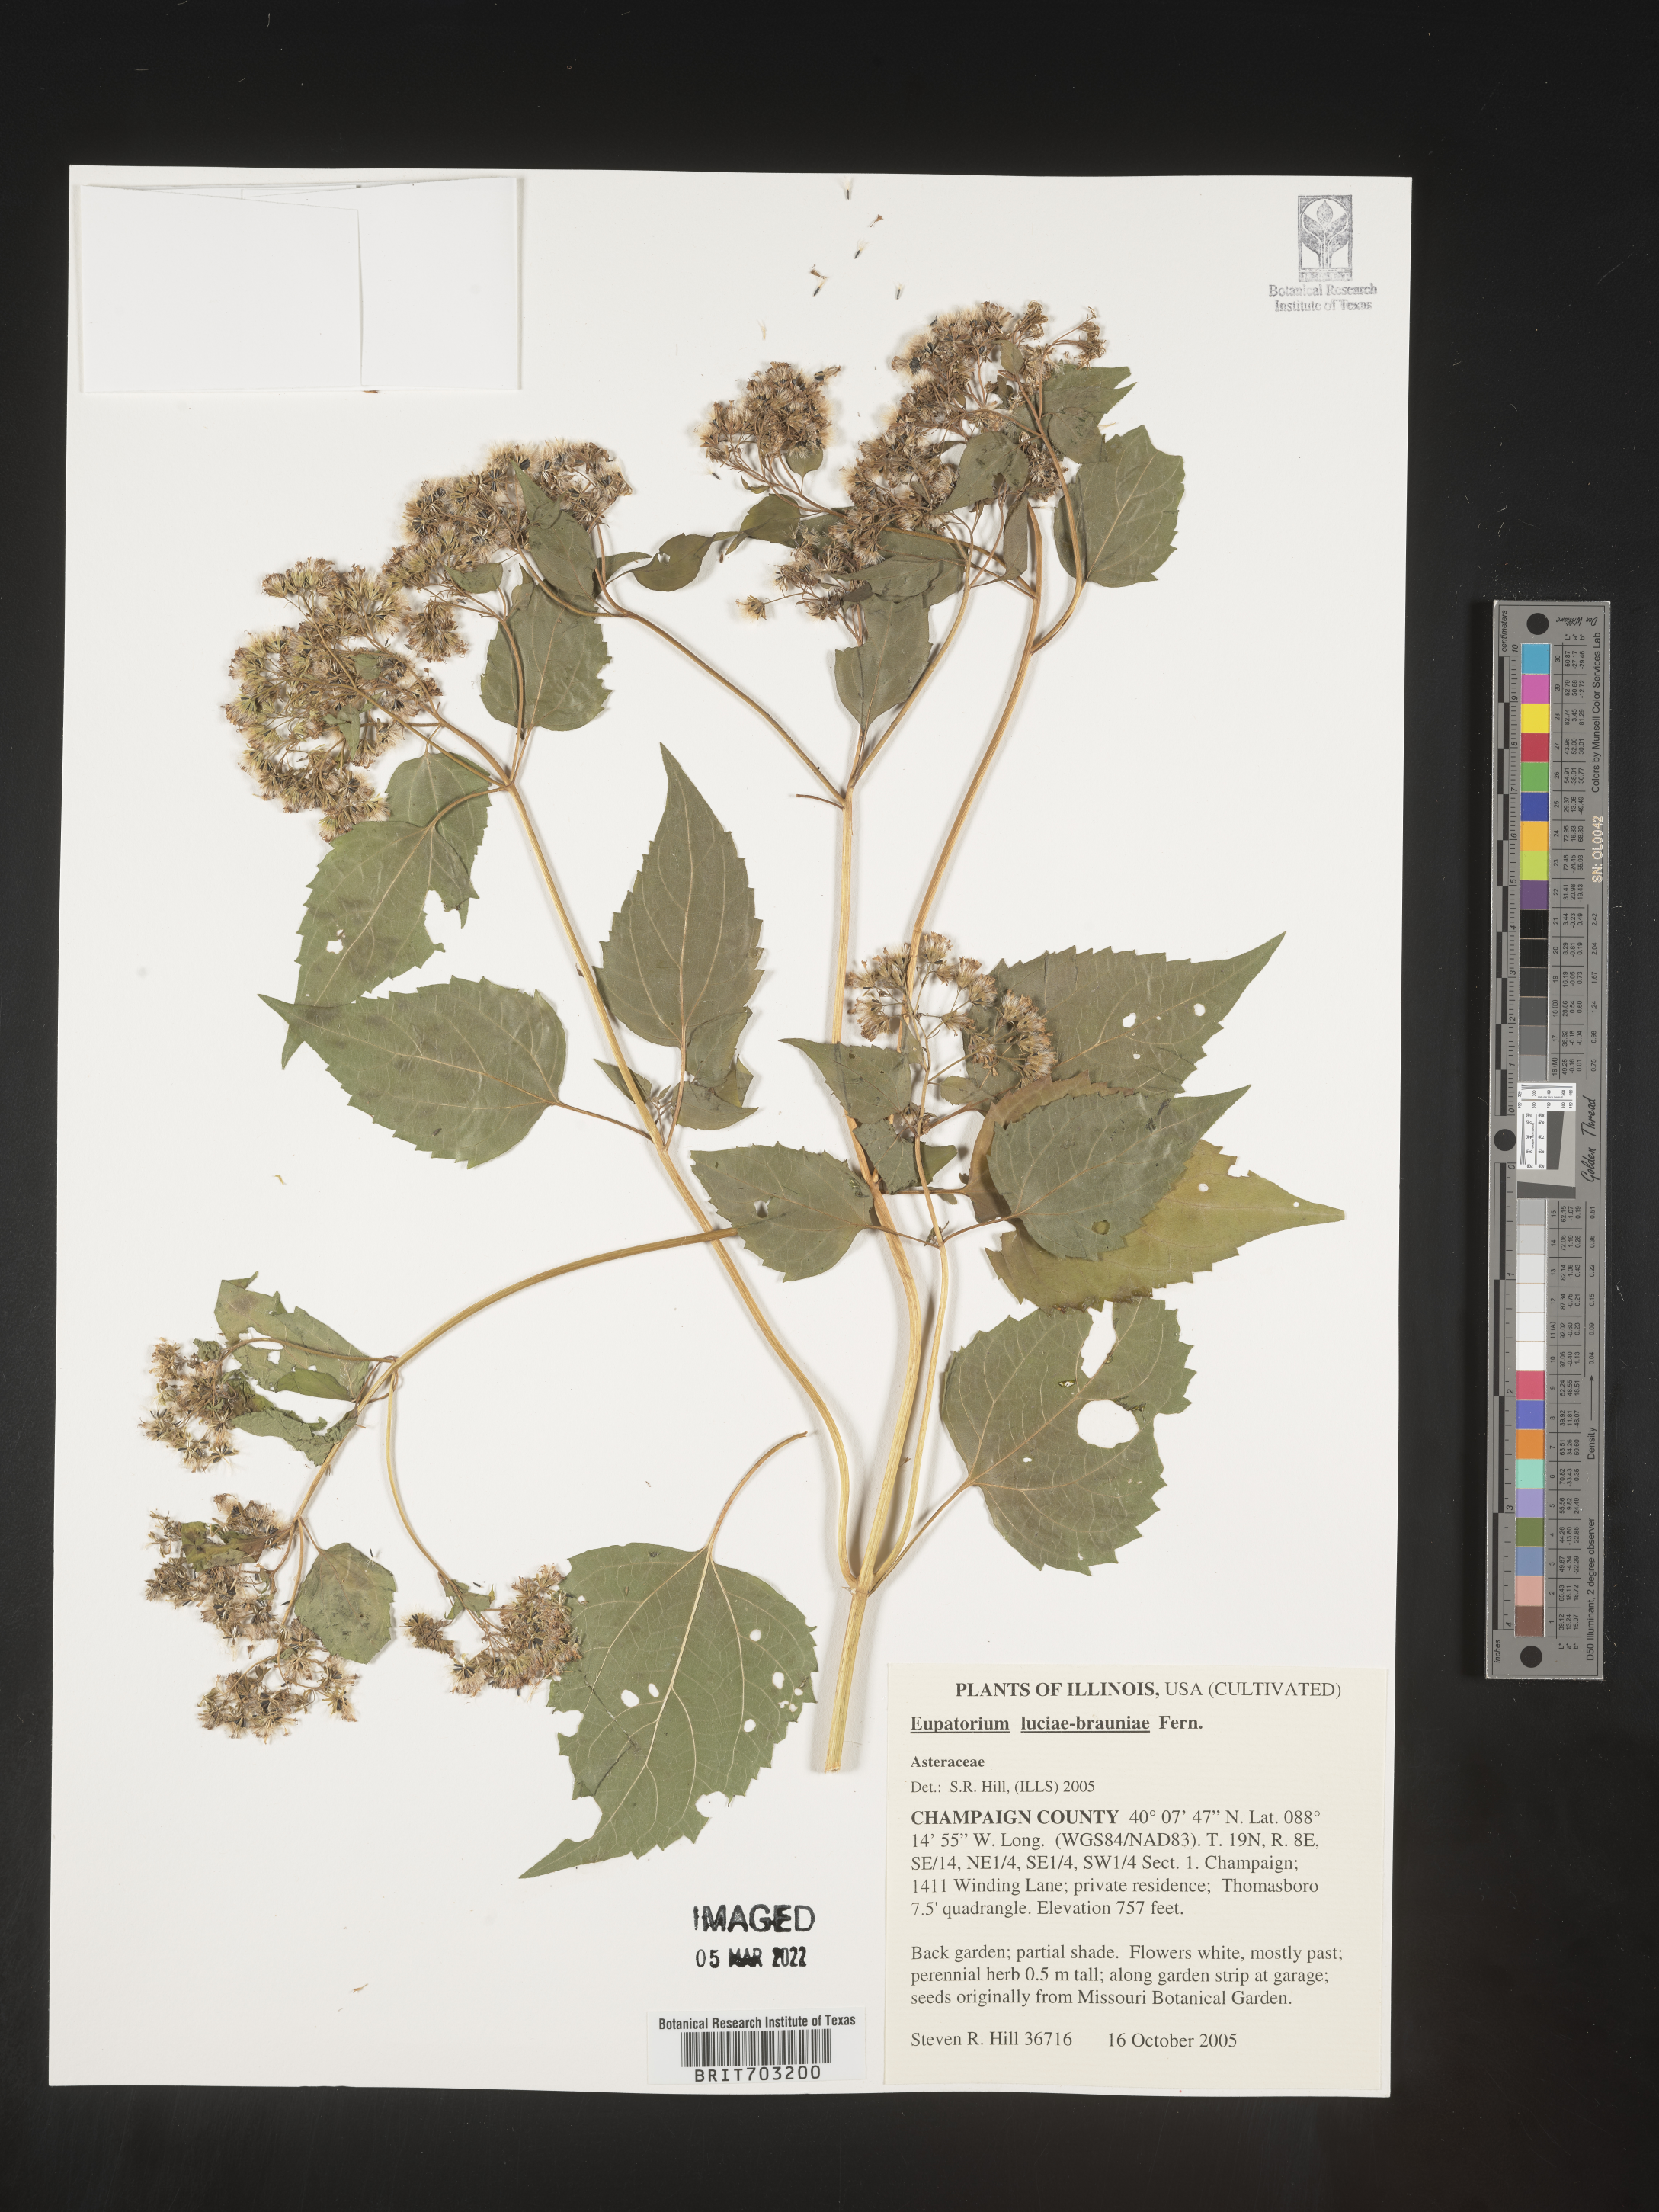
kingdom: Plantae
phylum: Tracheophyta
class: Magnoliopsida
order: Asterales
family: Asteraceae
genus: Eupatorium
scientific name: Eupatorium
